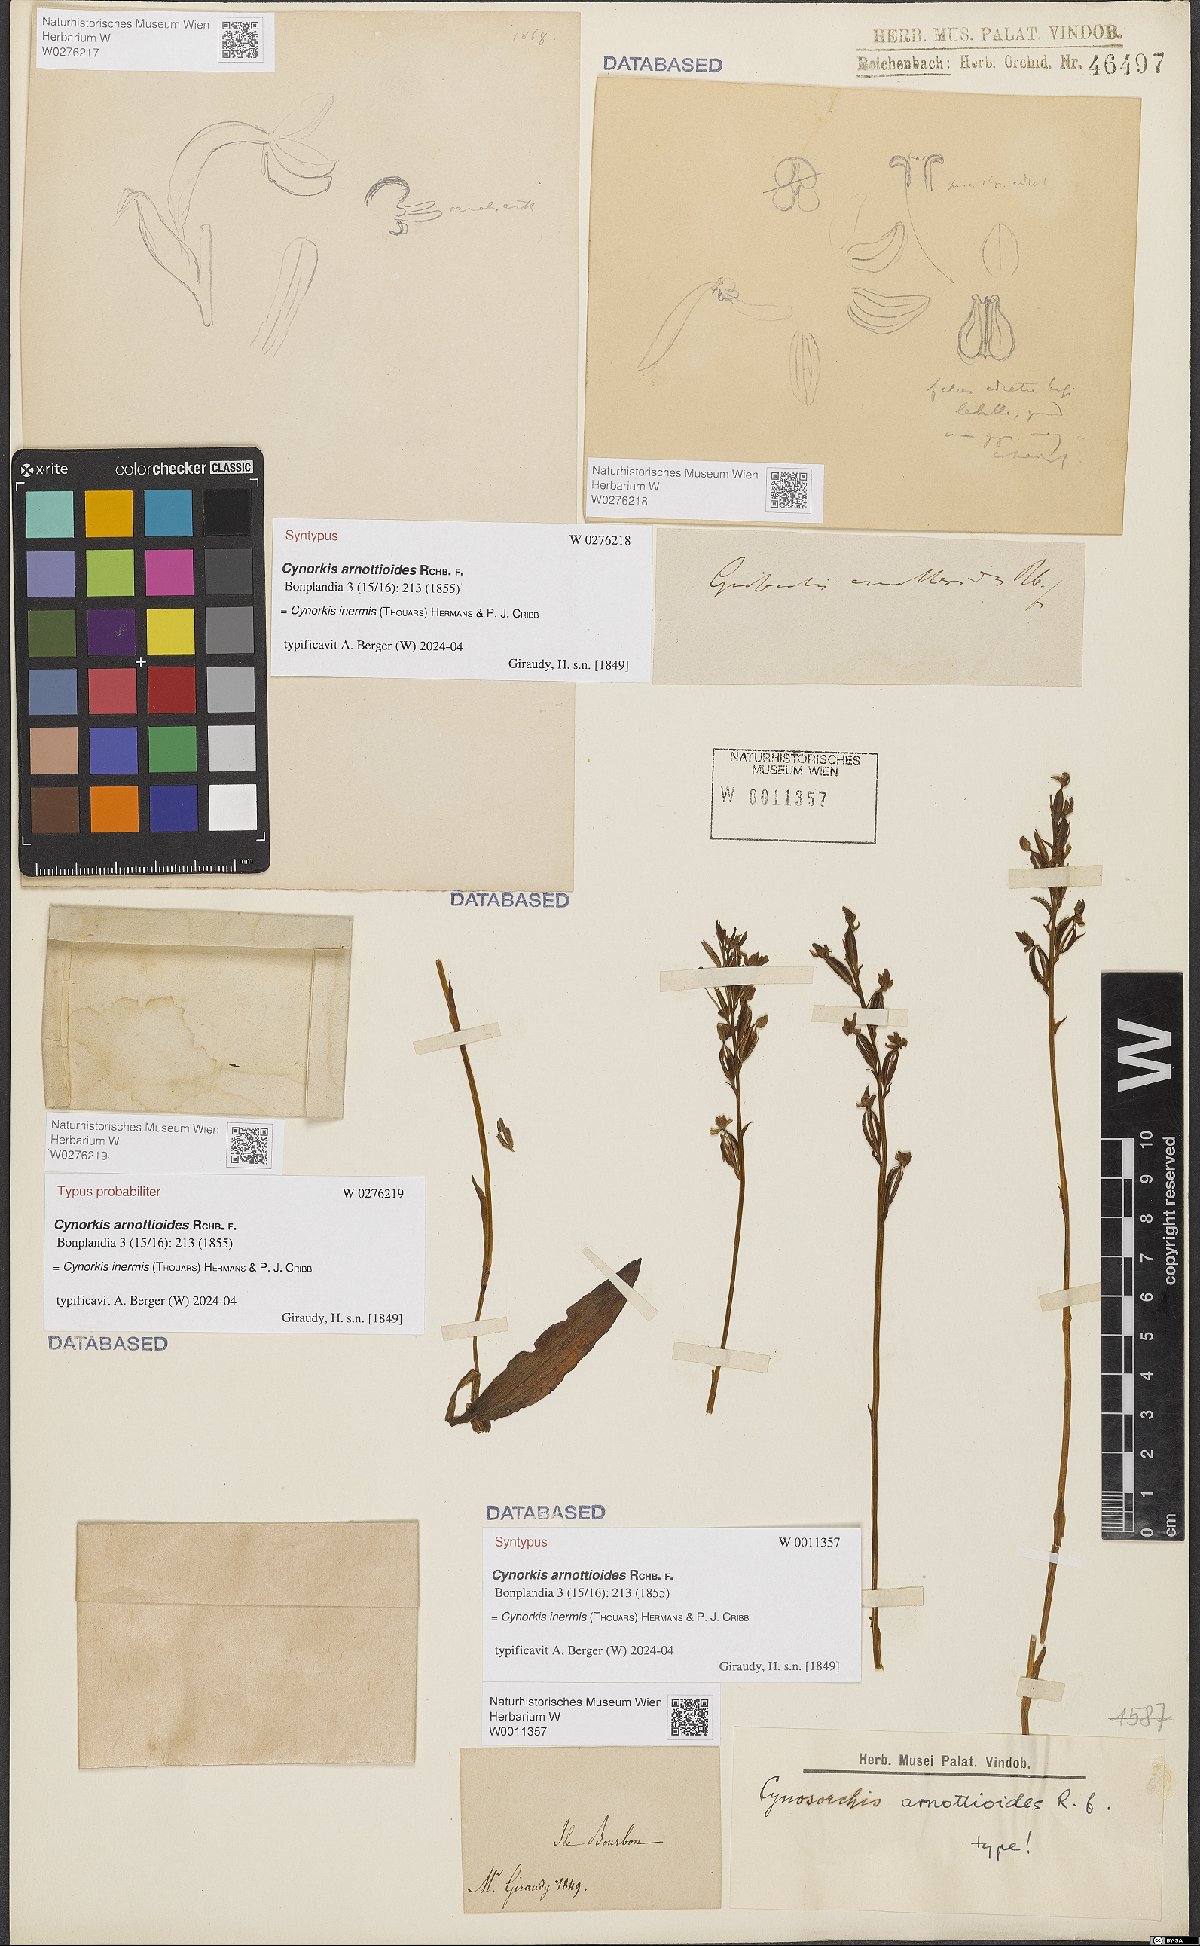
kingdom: Plantae
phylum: Tracheophyta
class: Liliopsida
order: Asparagales
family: Orchidaceae
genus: Cynorkis
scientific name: Cynorkis inermis
